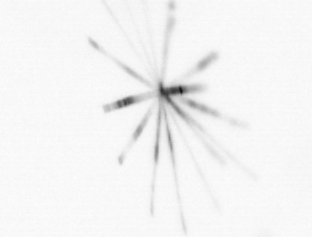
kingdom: Chromista
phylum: Ochrophyta
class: Bacillariophyceae
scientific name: Bacillariophyceae
